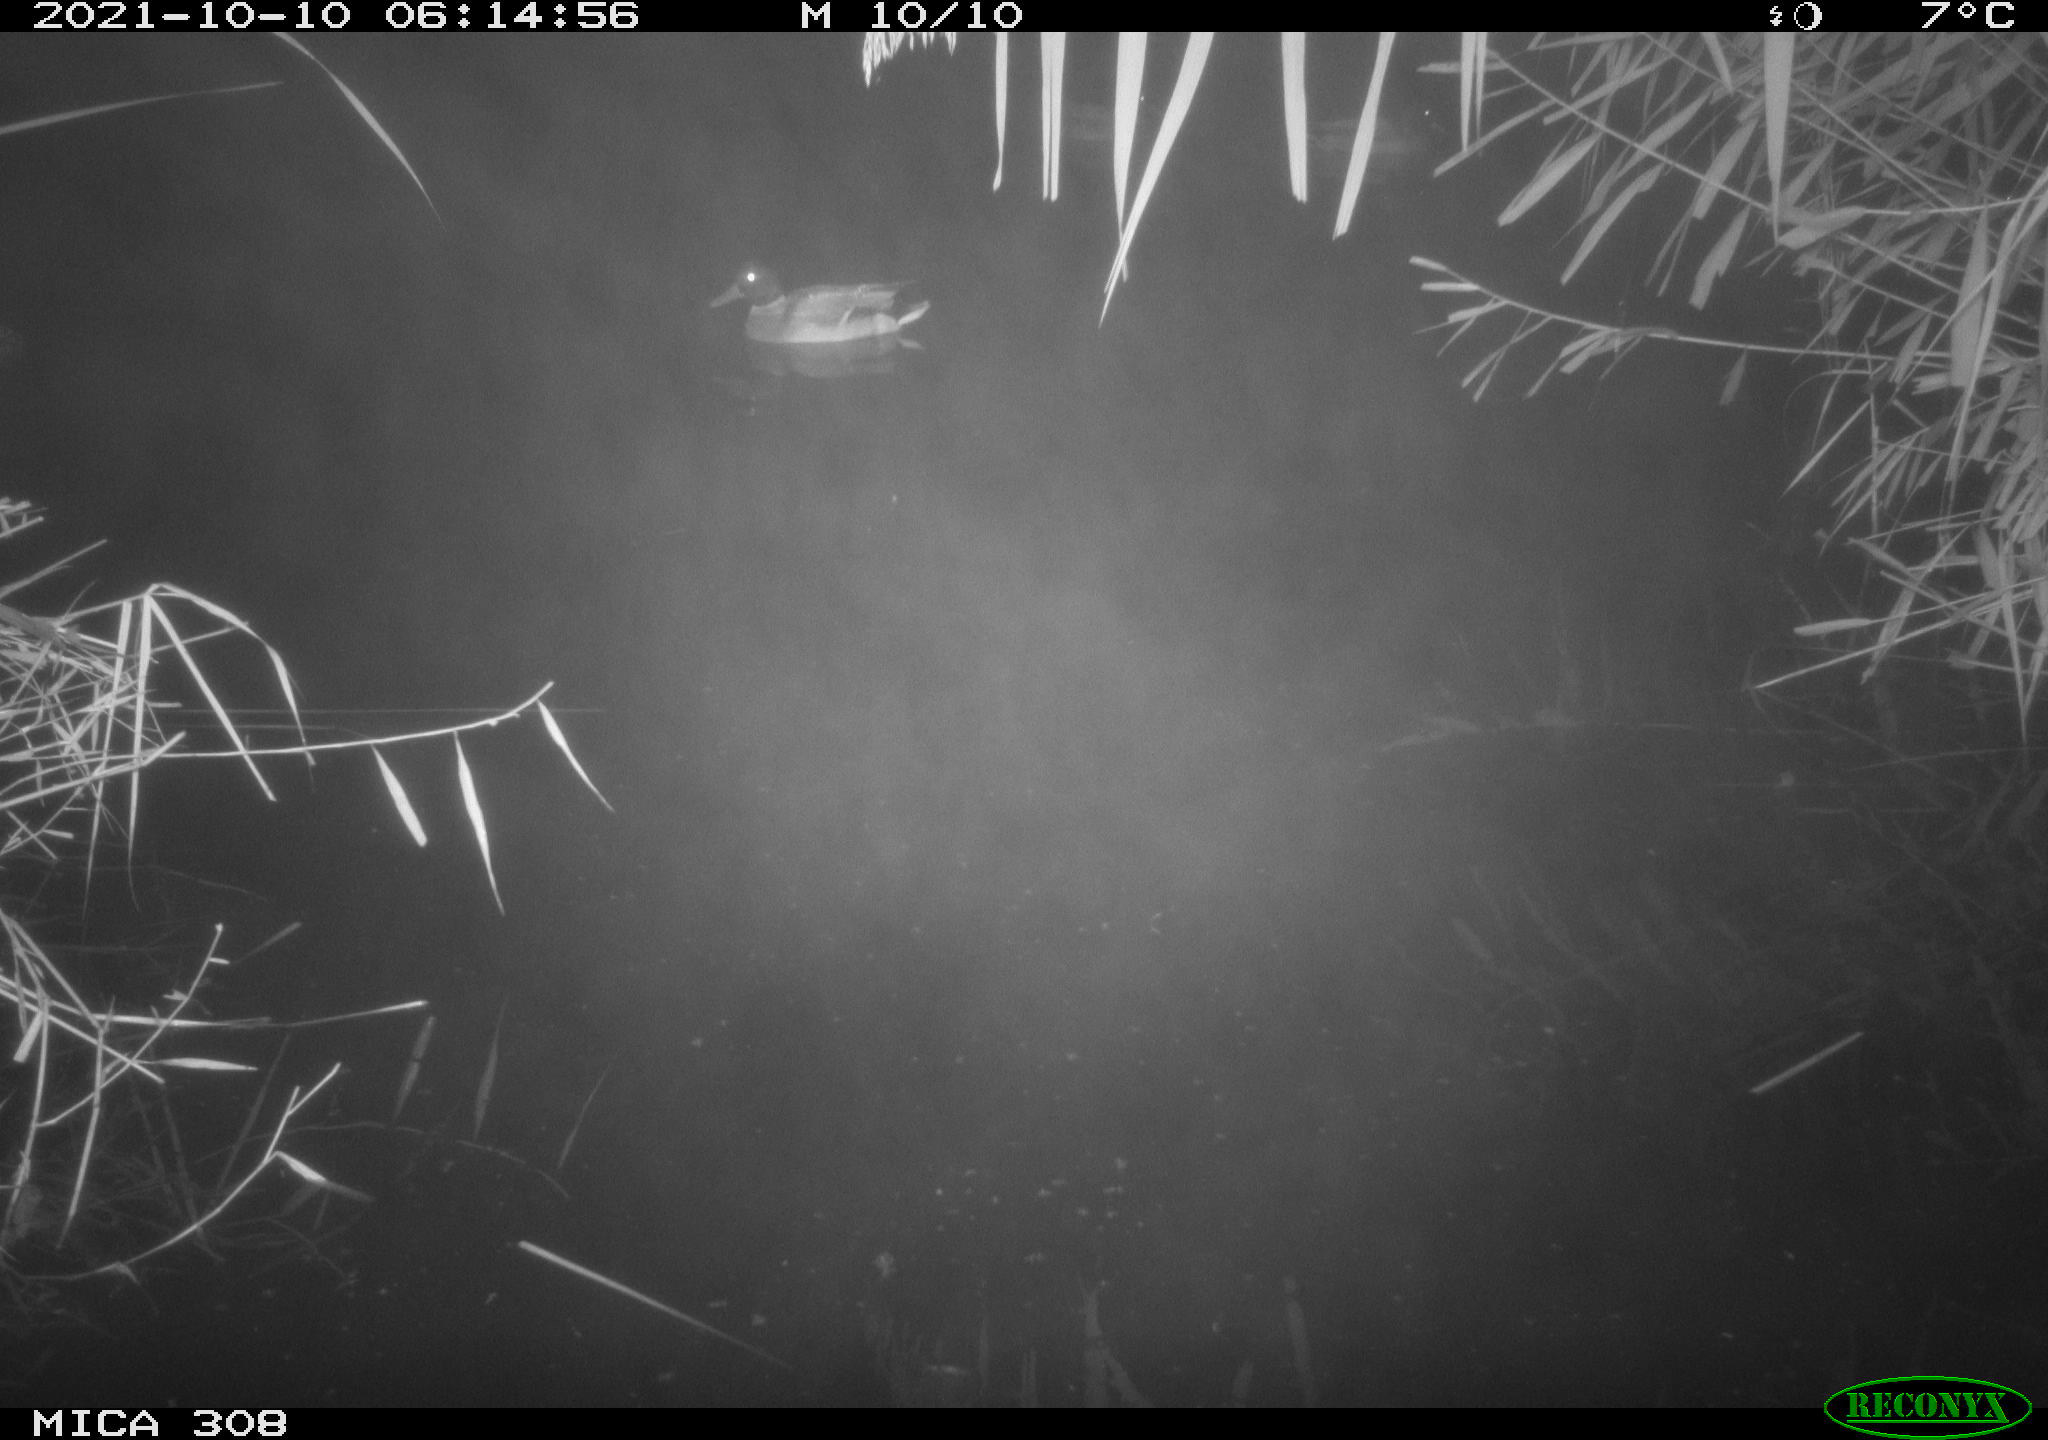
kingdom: Animalia
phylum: Chordata
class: Aves
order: Anseriformes
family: Anatidae
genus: Spatula
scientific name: Spatula clypeata
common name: Northern shoveler
